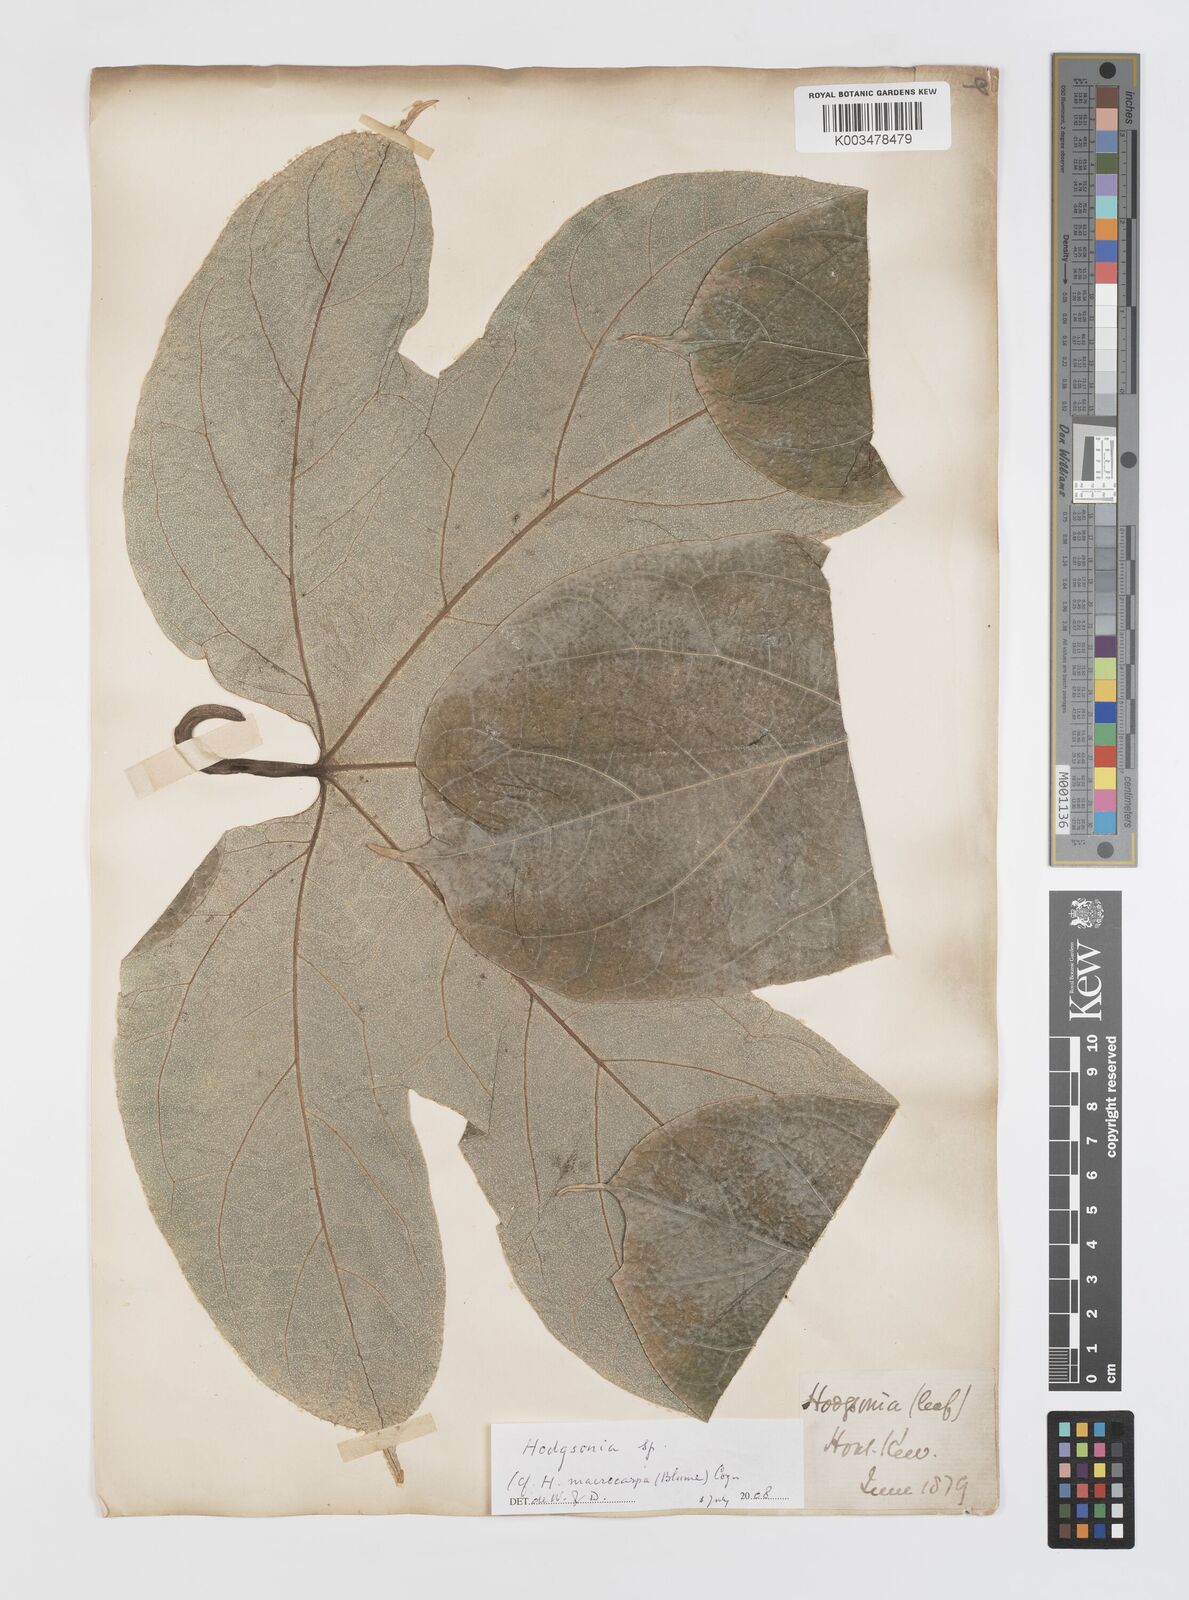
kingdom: Plantae
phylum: Tracheophyta
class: Magnoliopsida
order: Cucurbitales
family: Cucurbitaceae
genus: Hodgsonia
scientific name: Hodgsonia
